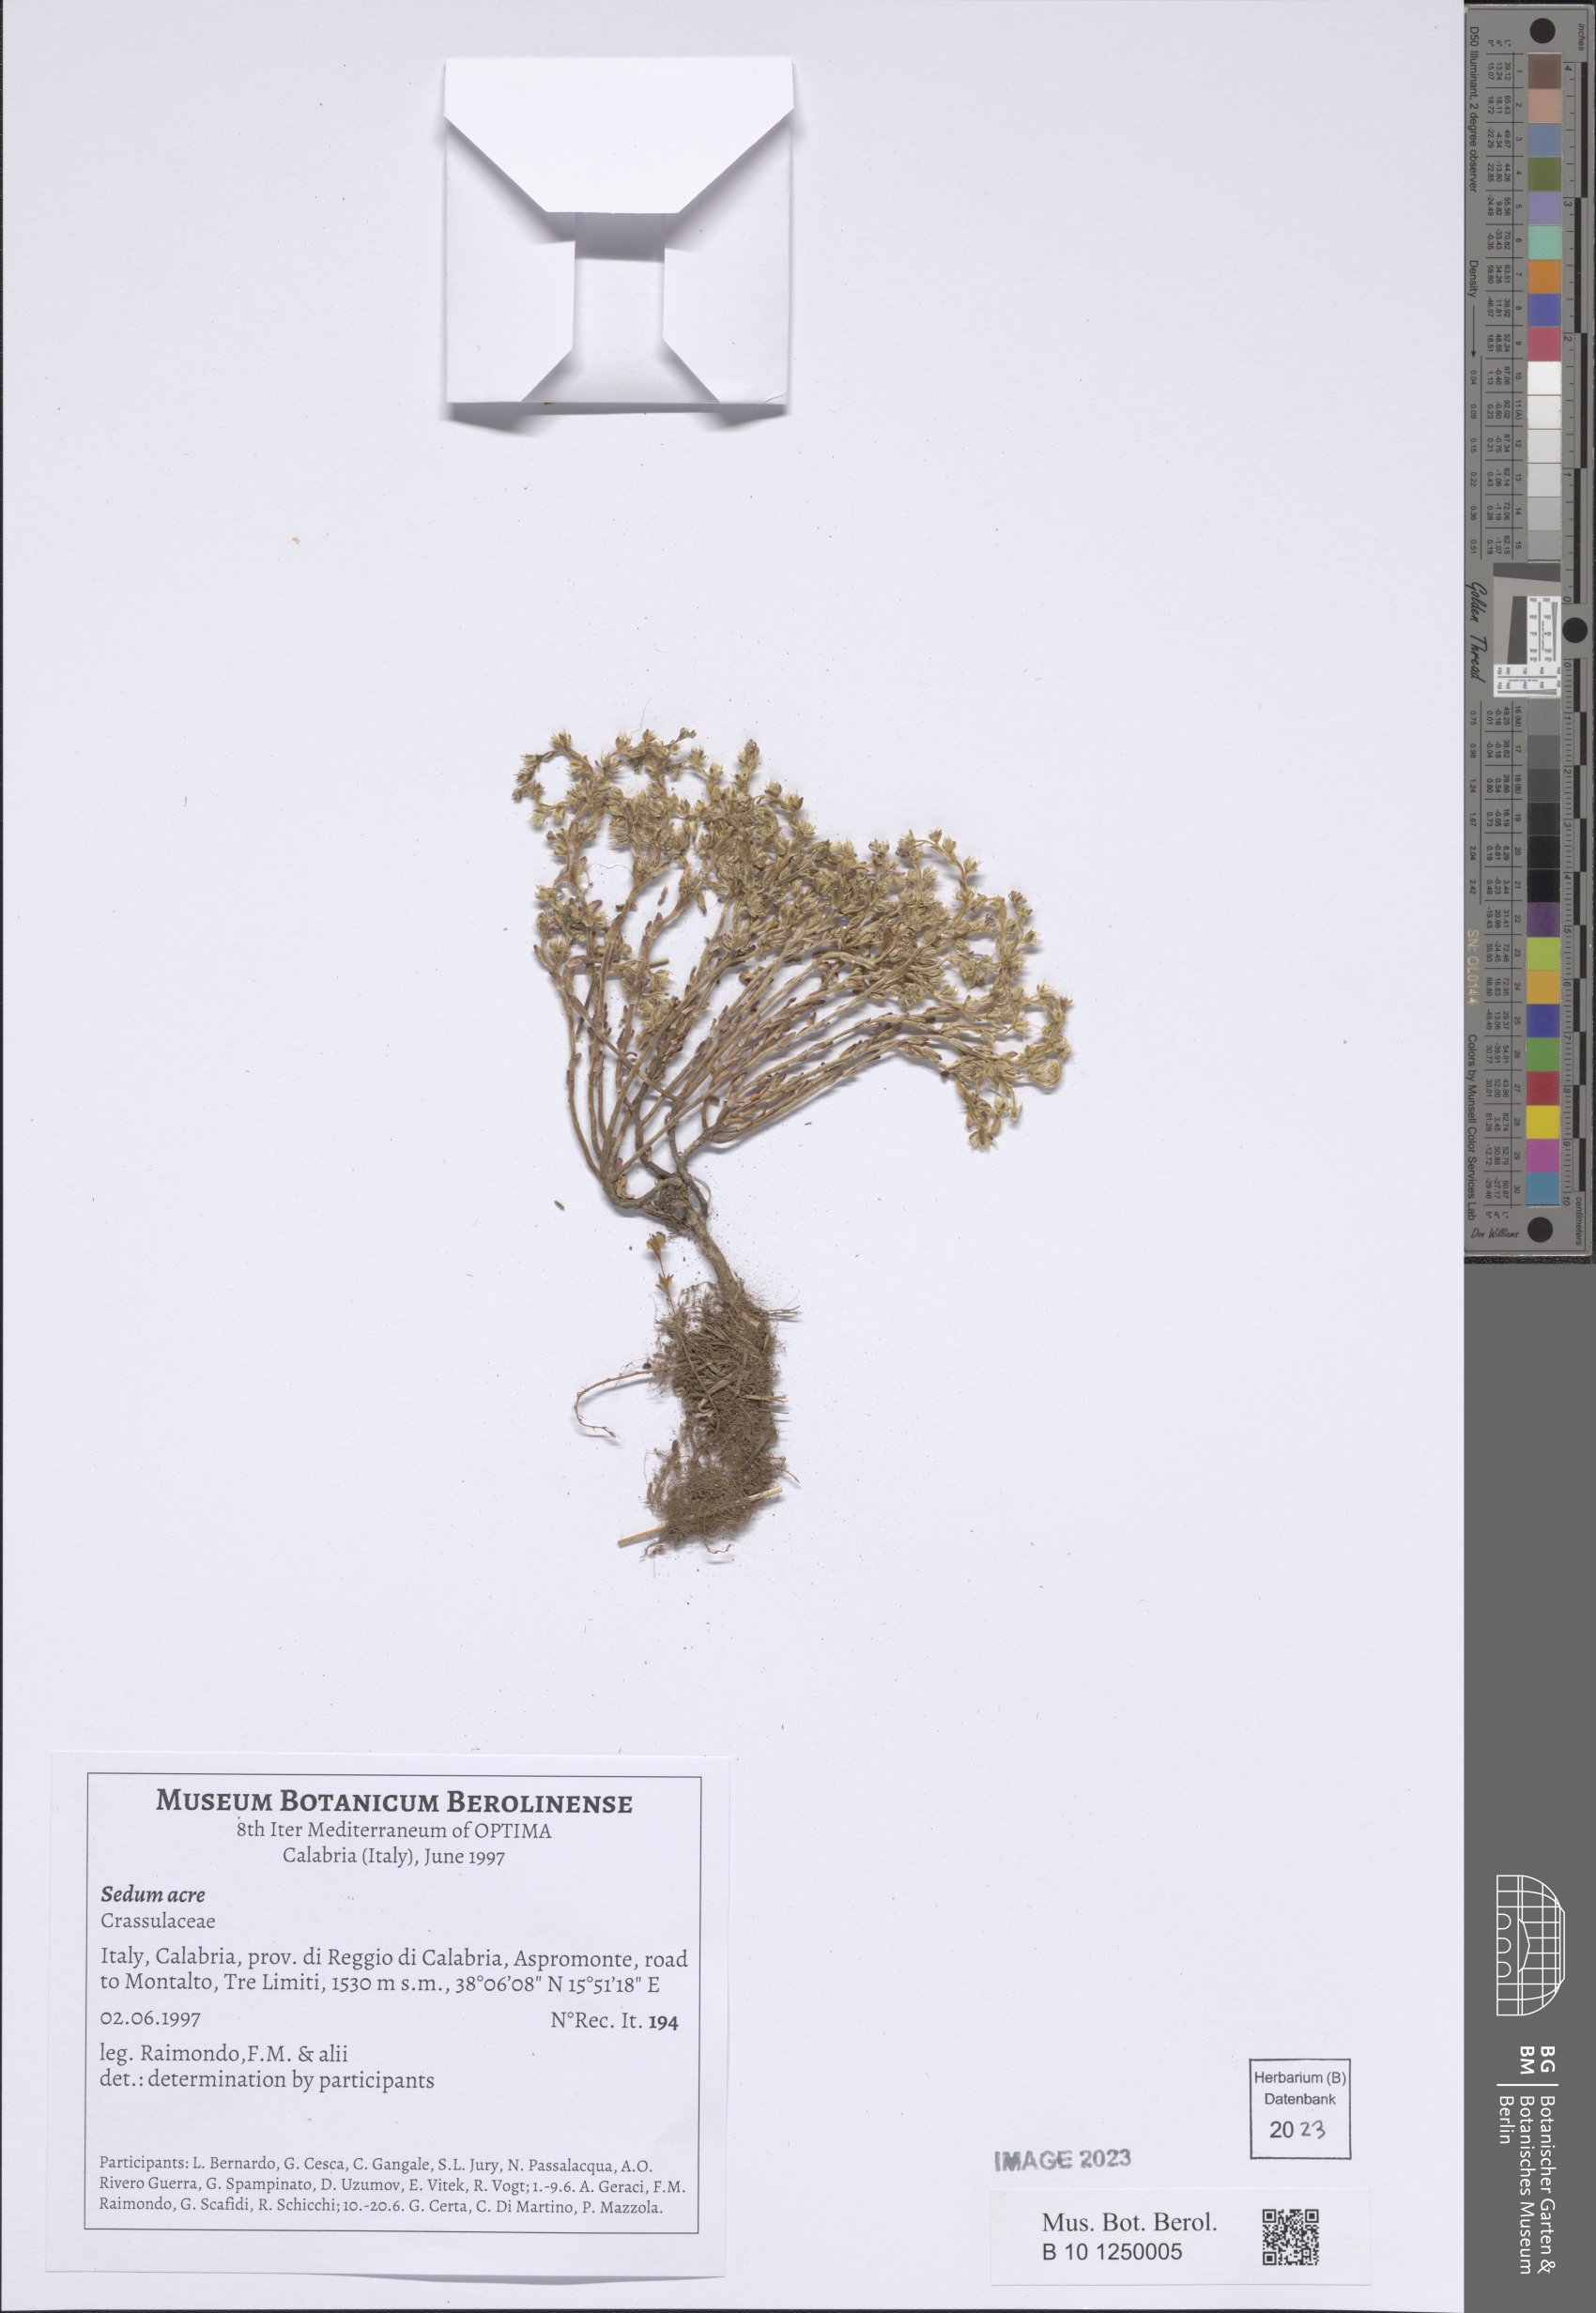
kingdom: Plantae
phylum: Tracheophyta
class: Magnoliopsida
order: Saxifragales
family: Crassulaceae
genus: Sedum
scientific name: Sedum acre
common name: Biting stonecrop
